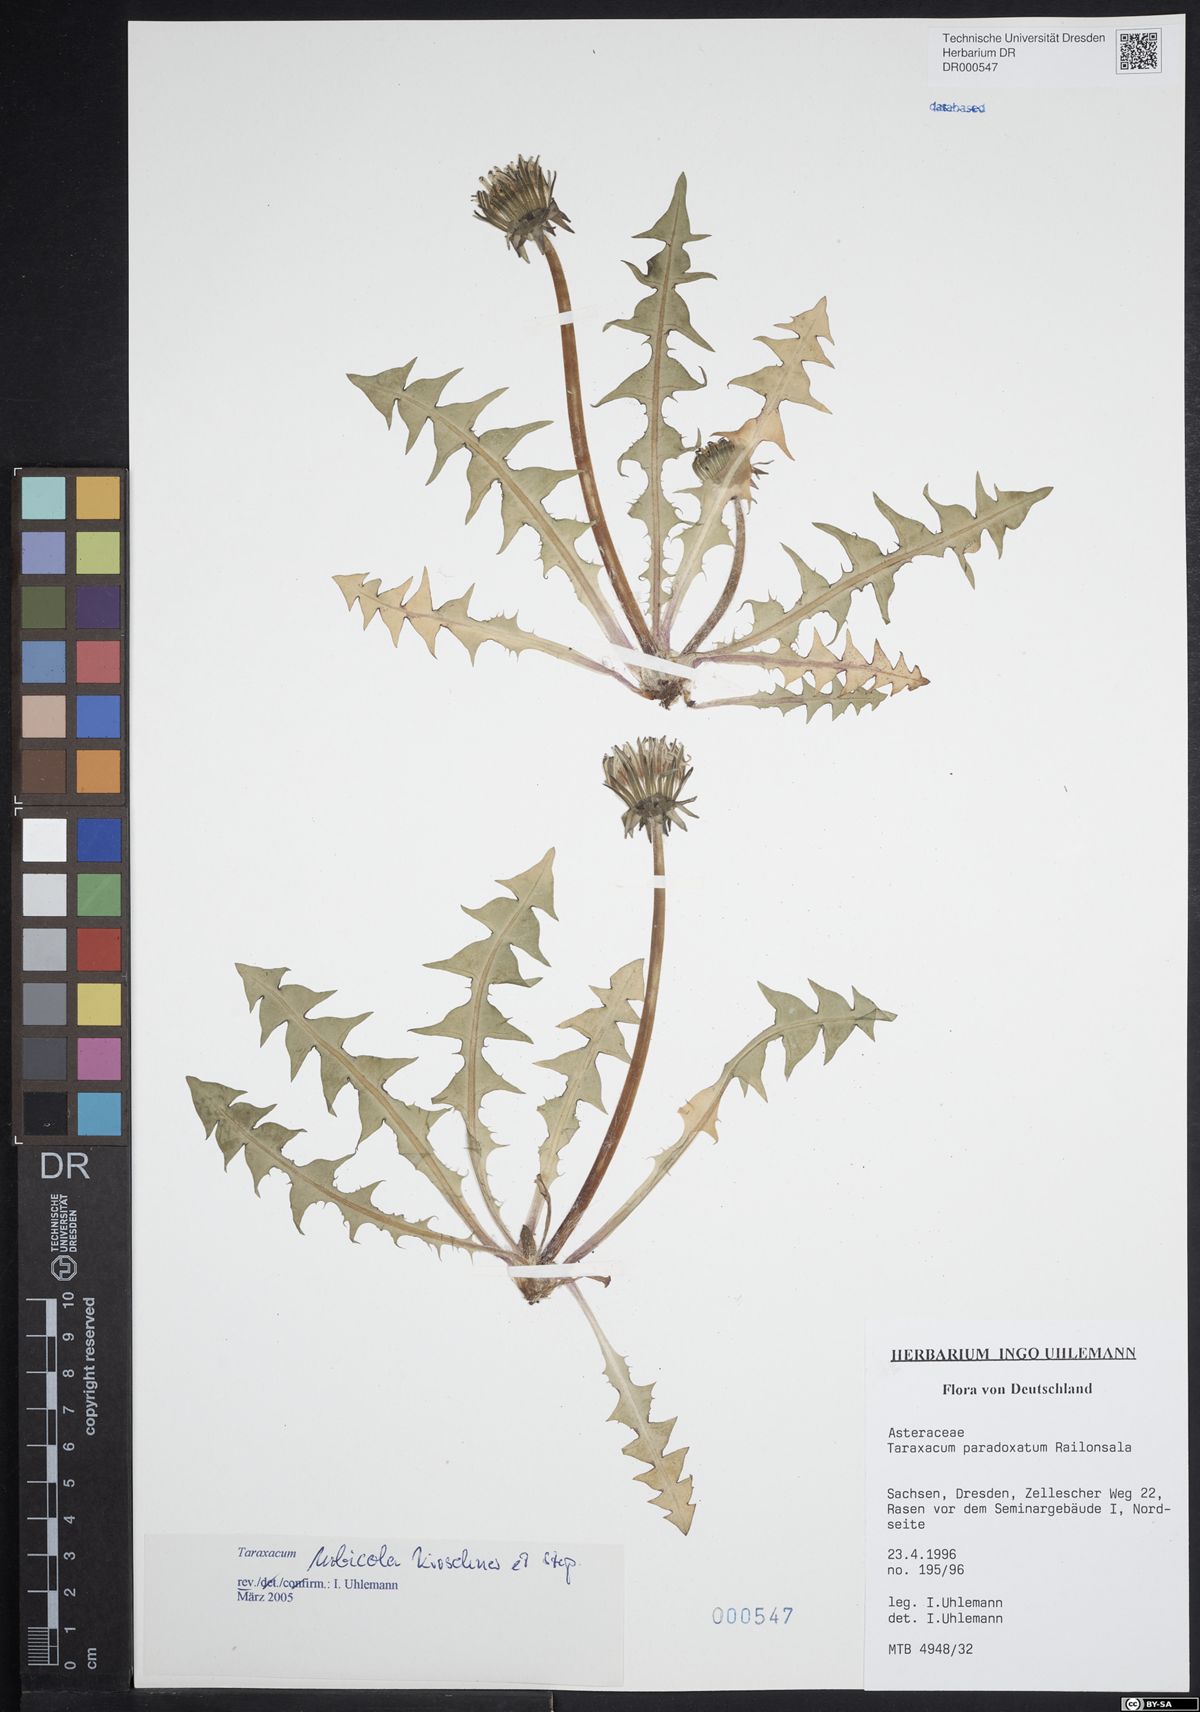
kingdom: Plantae
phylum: Tracheophyta
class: Magnoliopsida
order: Asterales
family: Asteraceae
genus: Taraxacum
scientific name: Taraxacum urbicola
